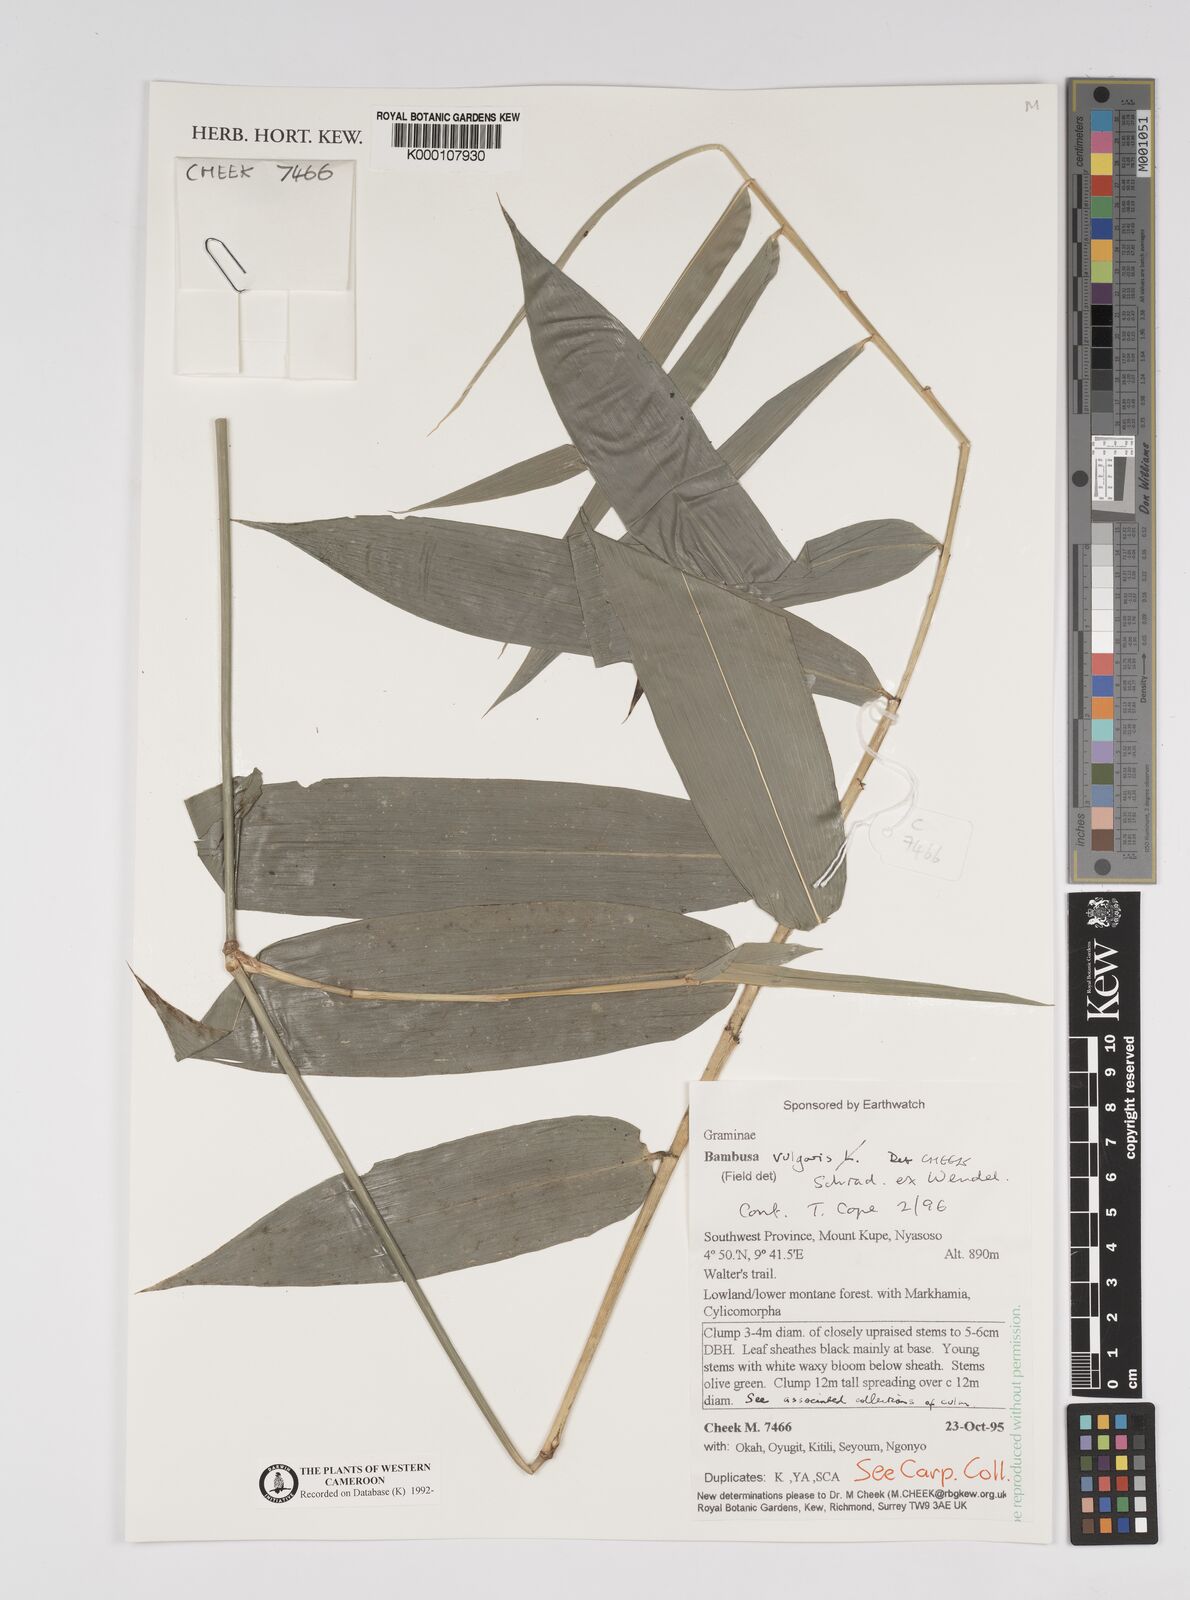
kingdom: Plantae
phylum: Tracheophyta
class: Liliopsida
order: Poales
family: Poaceae
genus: Bambusa
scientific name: Bambusa vulgaris
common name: Common bamboo
